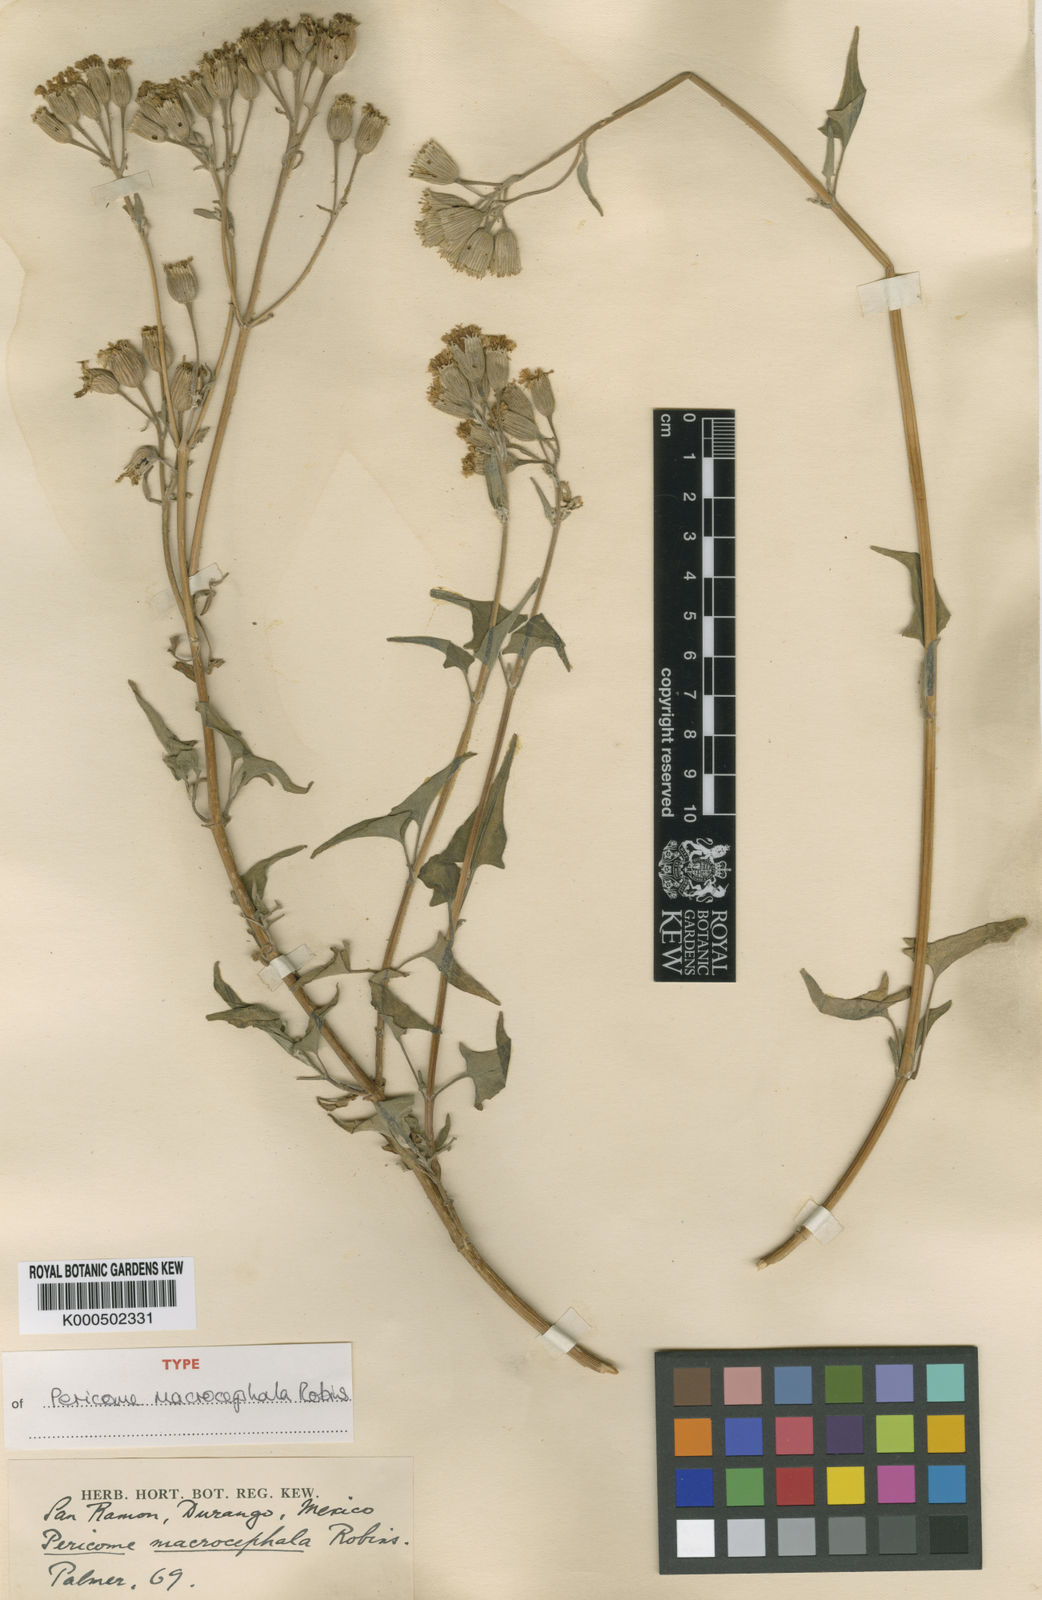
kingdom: Plantae
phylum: Tracheophyta
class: Magnoliopsida
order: Asterales
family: Asteraceae
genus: Pericome
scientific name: Pericome macrocephala
